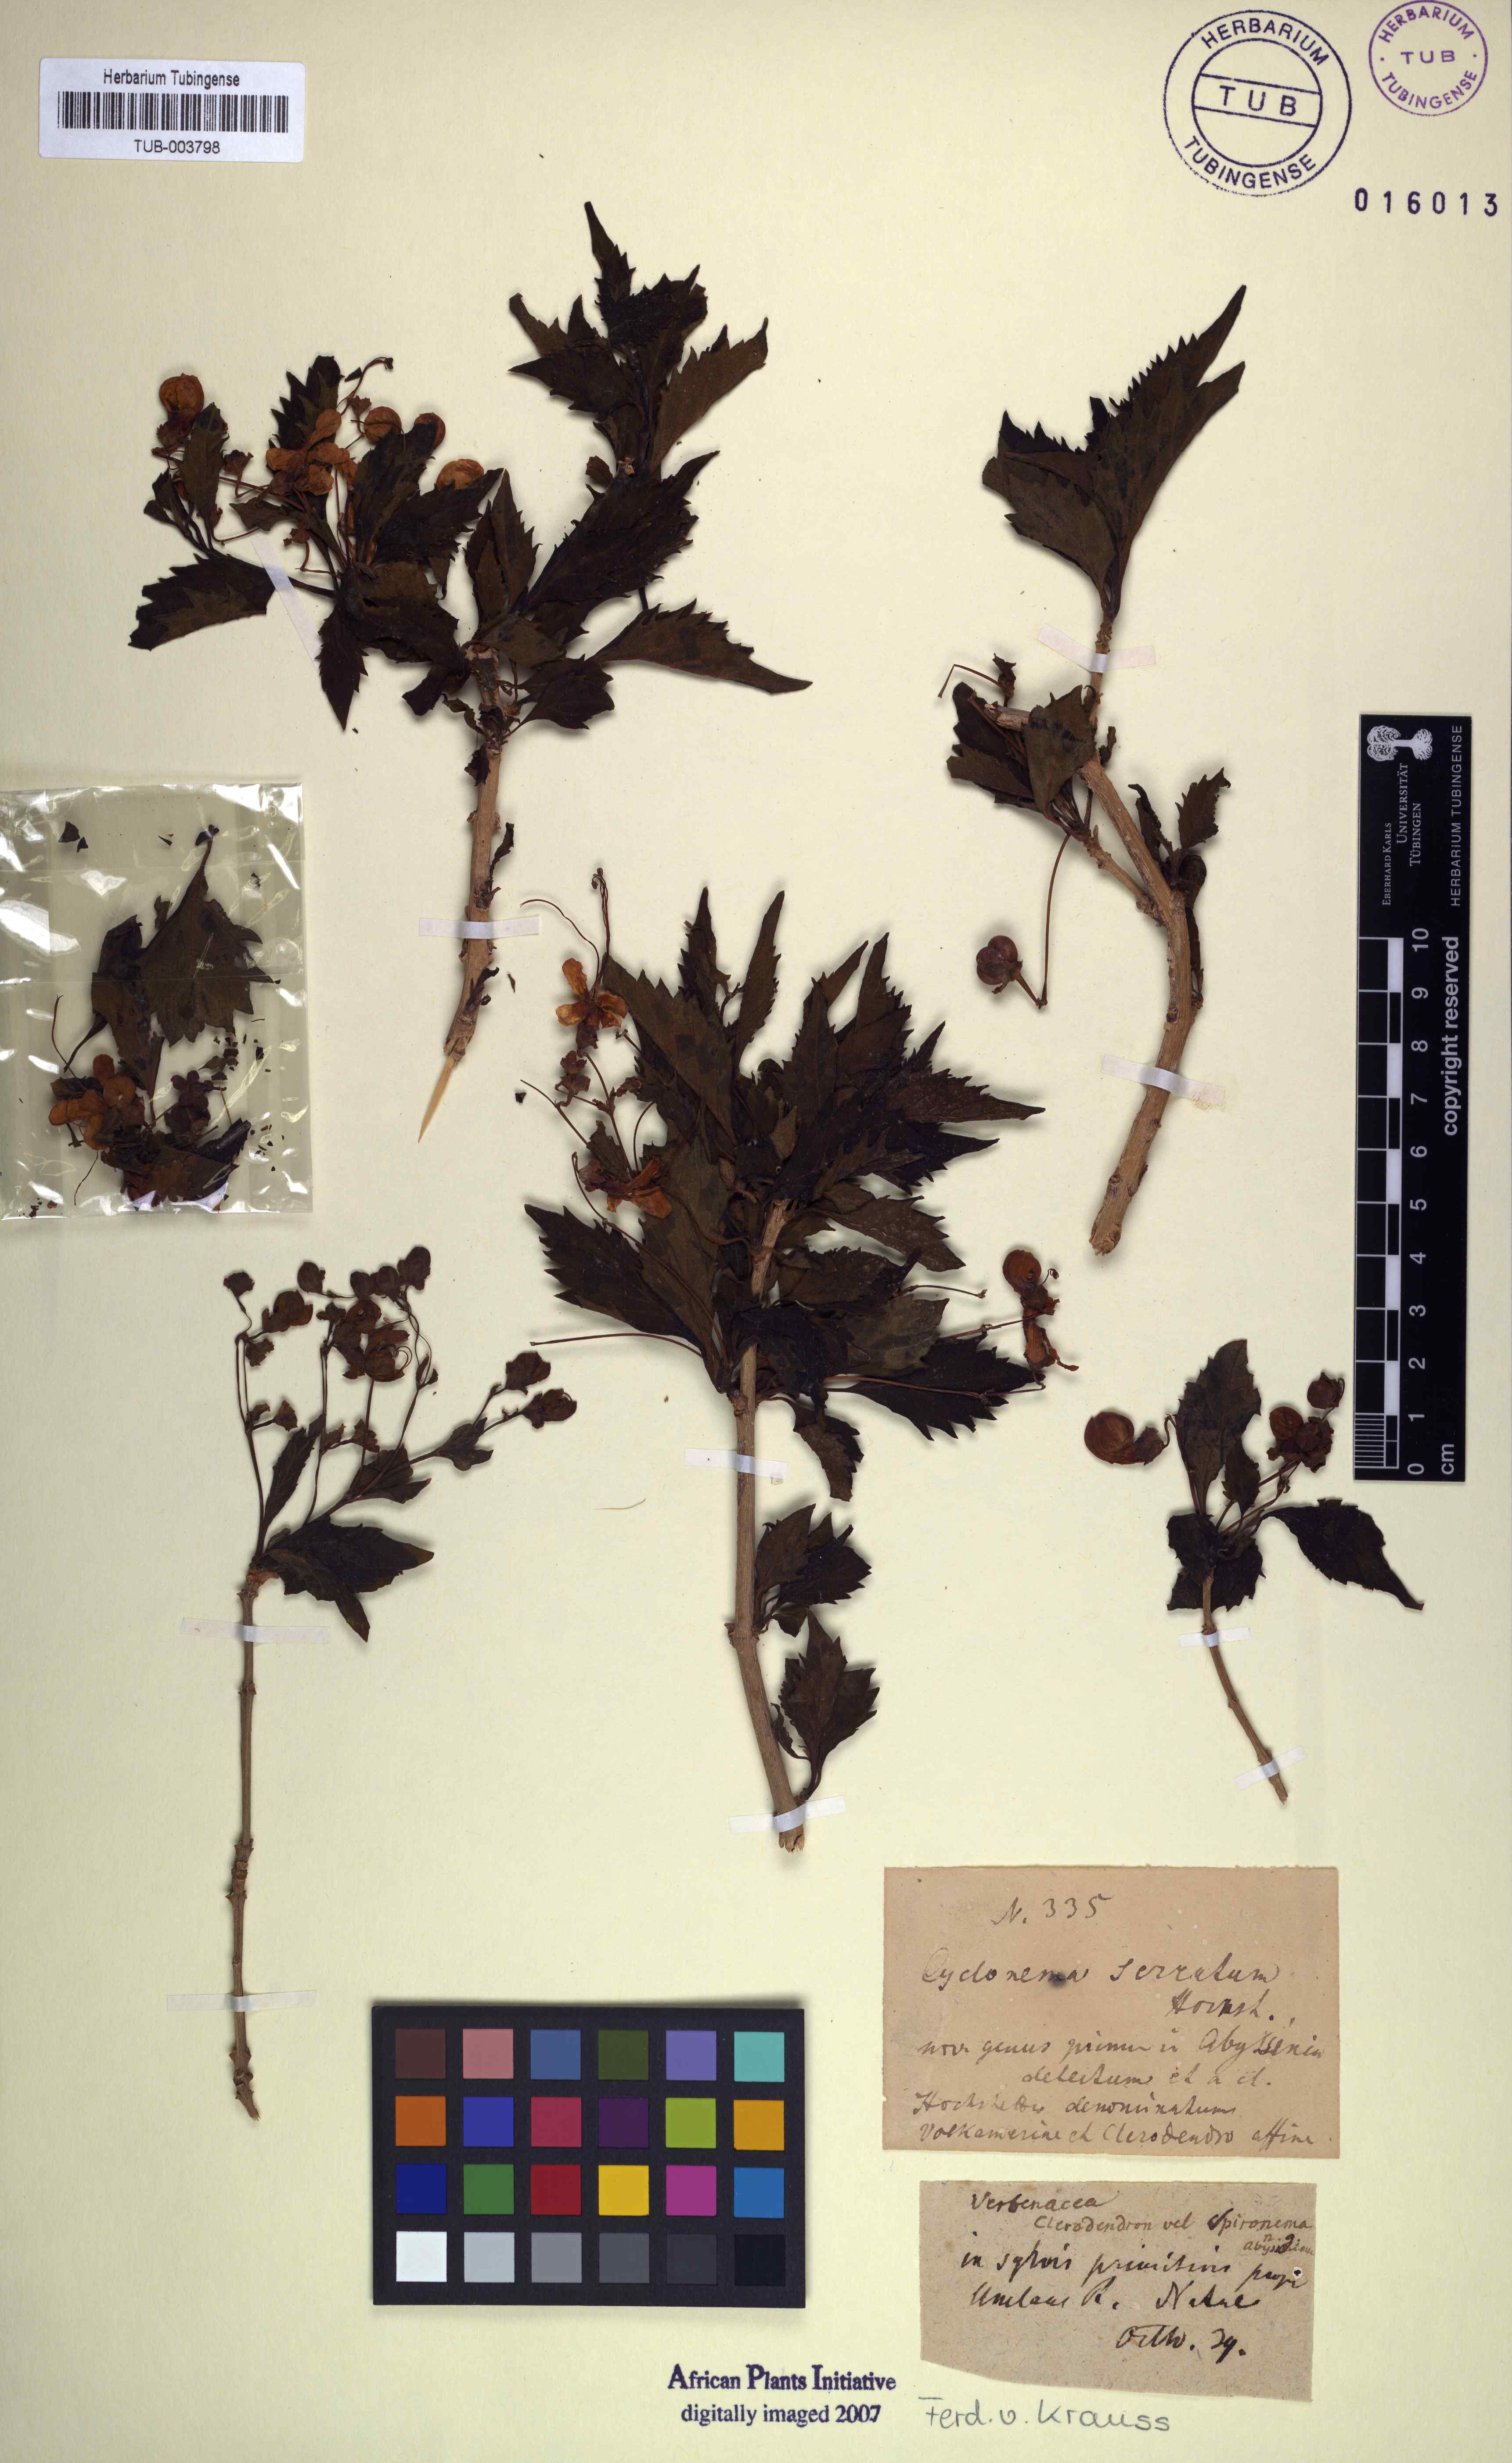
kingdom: Animalia
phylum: Mollusca
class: Gastropoda
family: Platyceratidae
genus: Cyclonema
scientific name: Cyclonema
